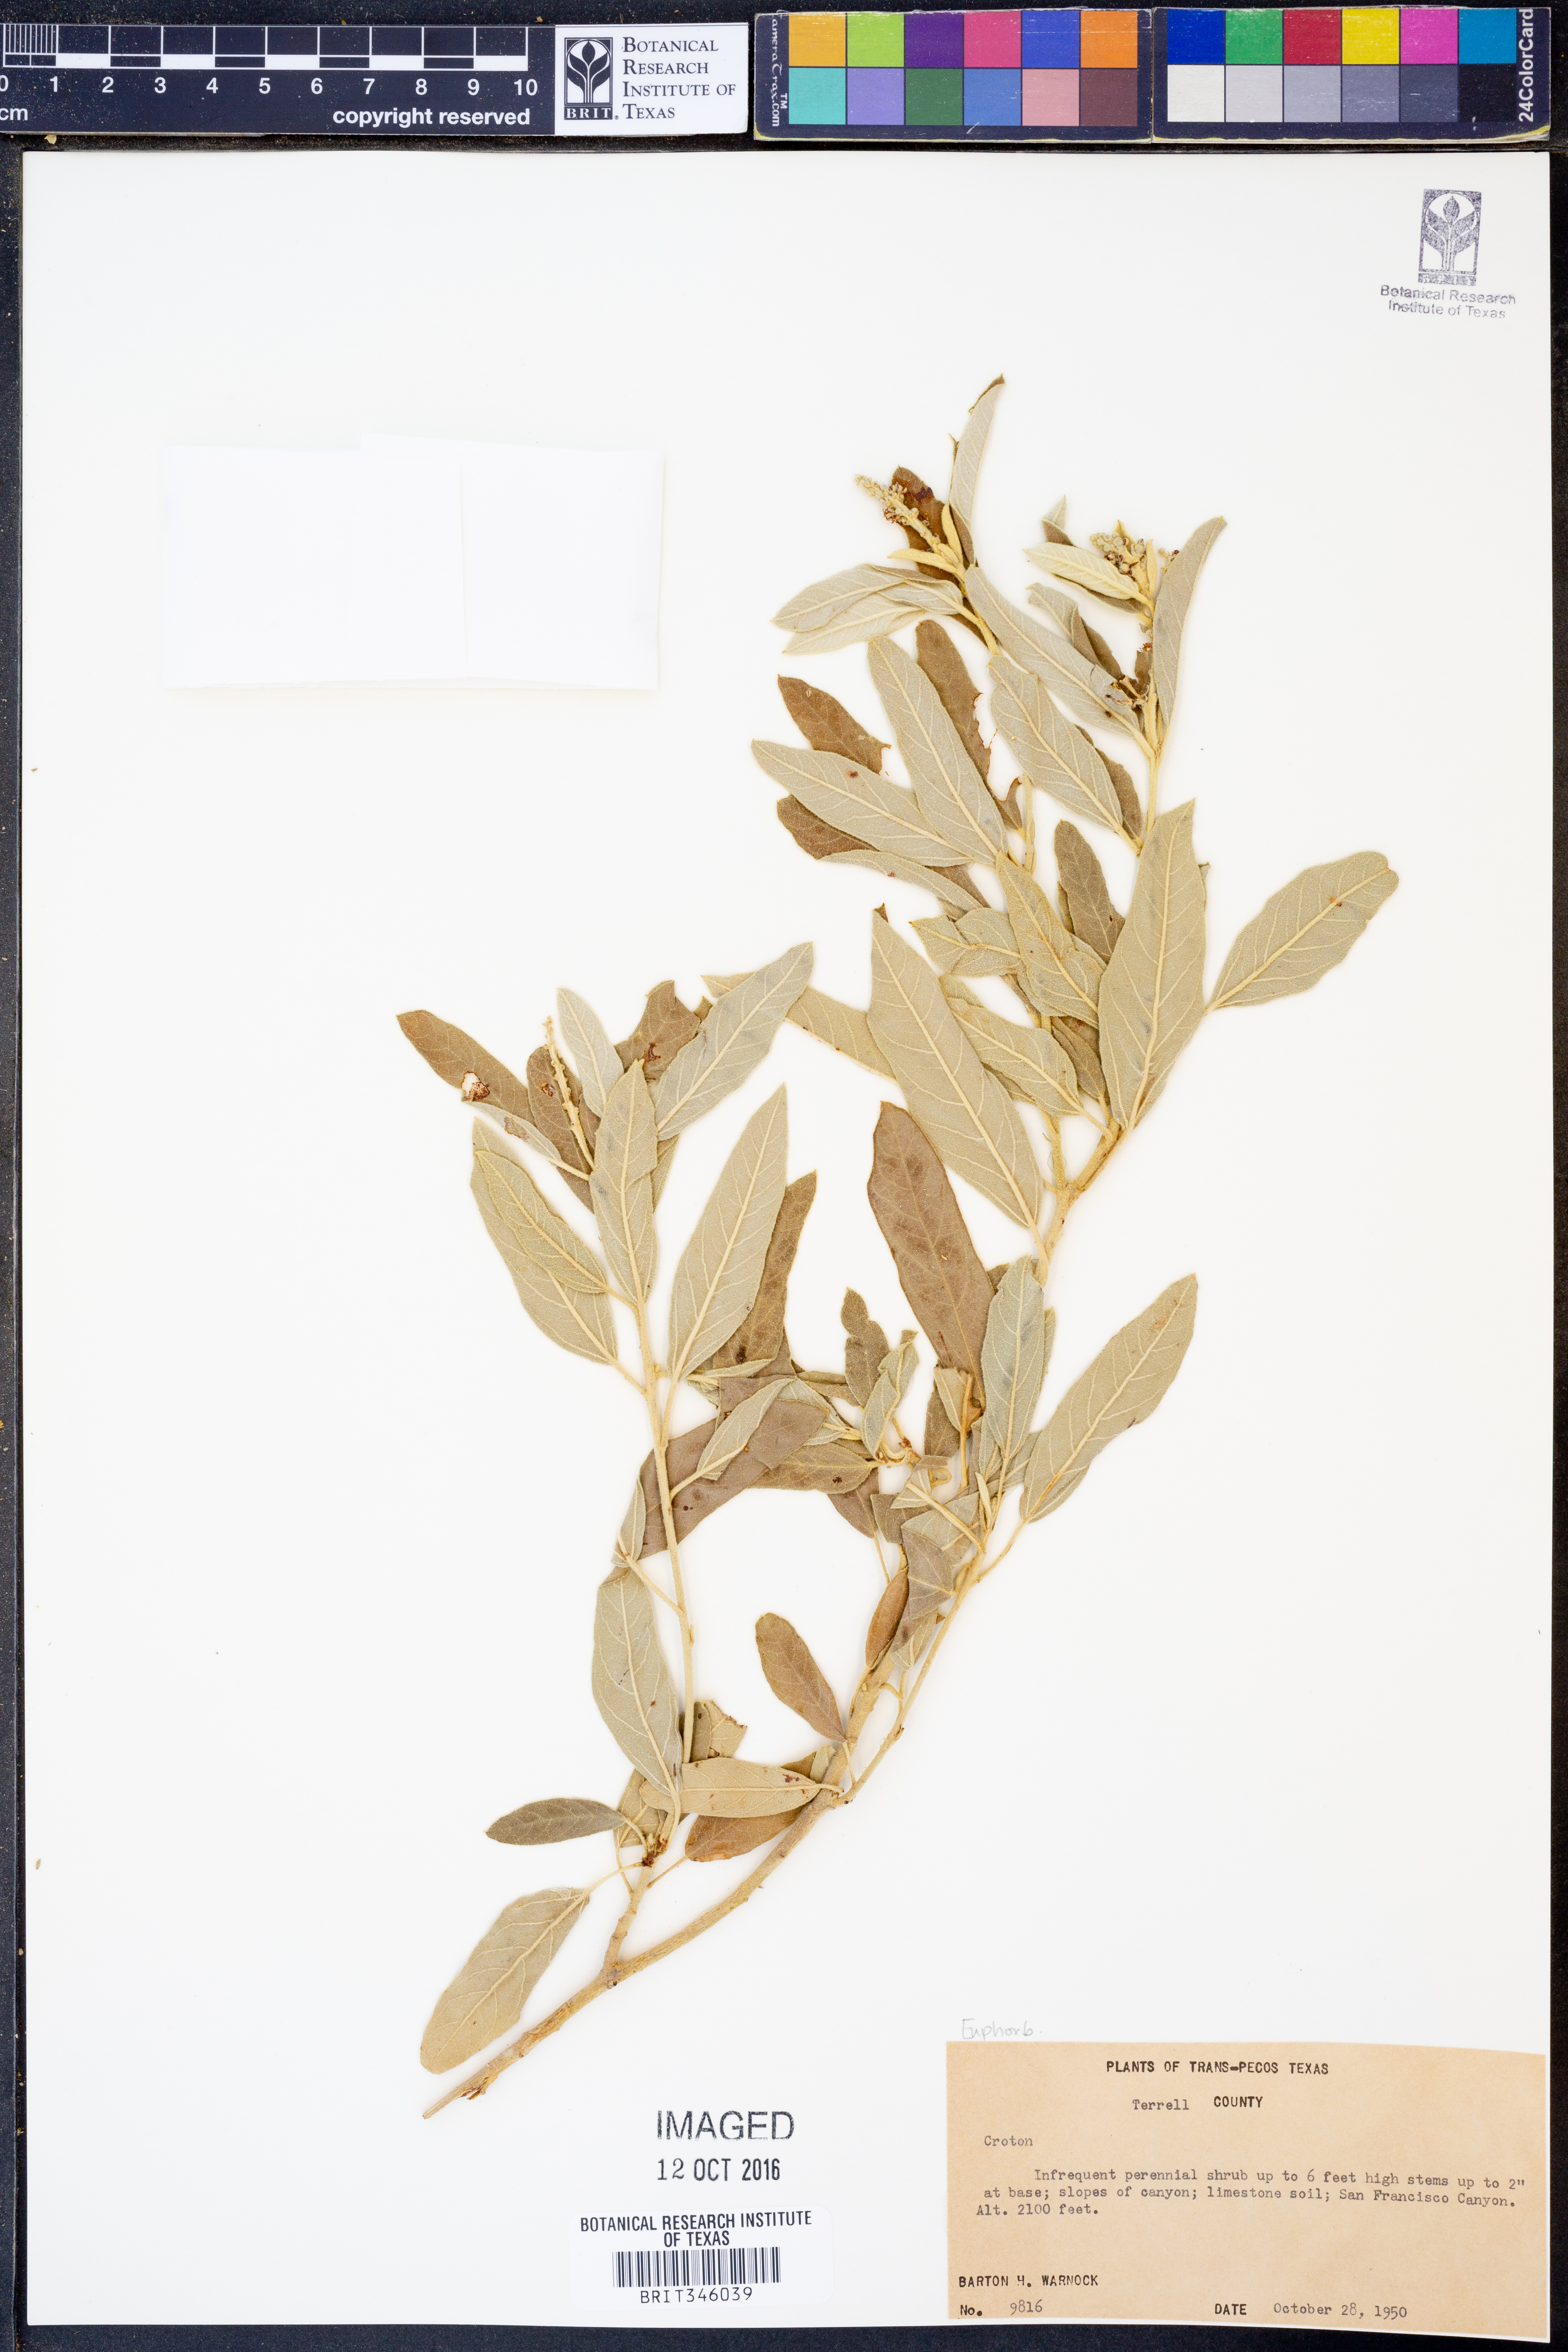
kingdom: Plantae
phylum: Tracheophyta
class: Magnoliopsida
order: Malpighiales
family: Euphorbiaceae
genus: Croton
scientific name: Croton incanus
